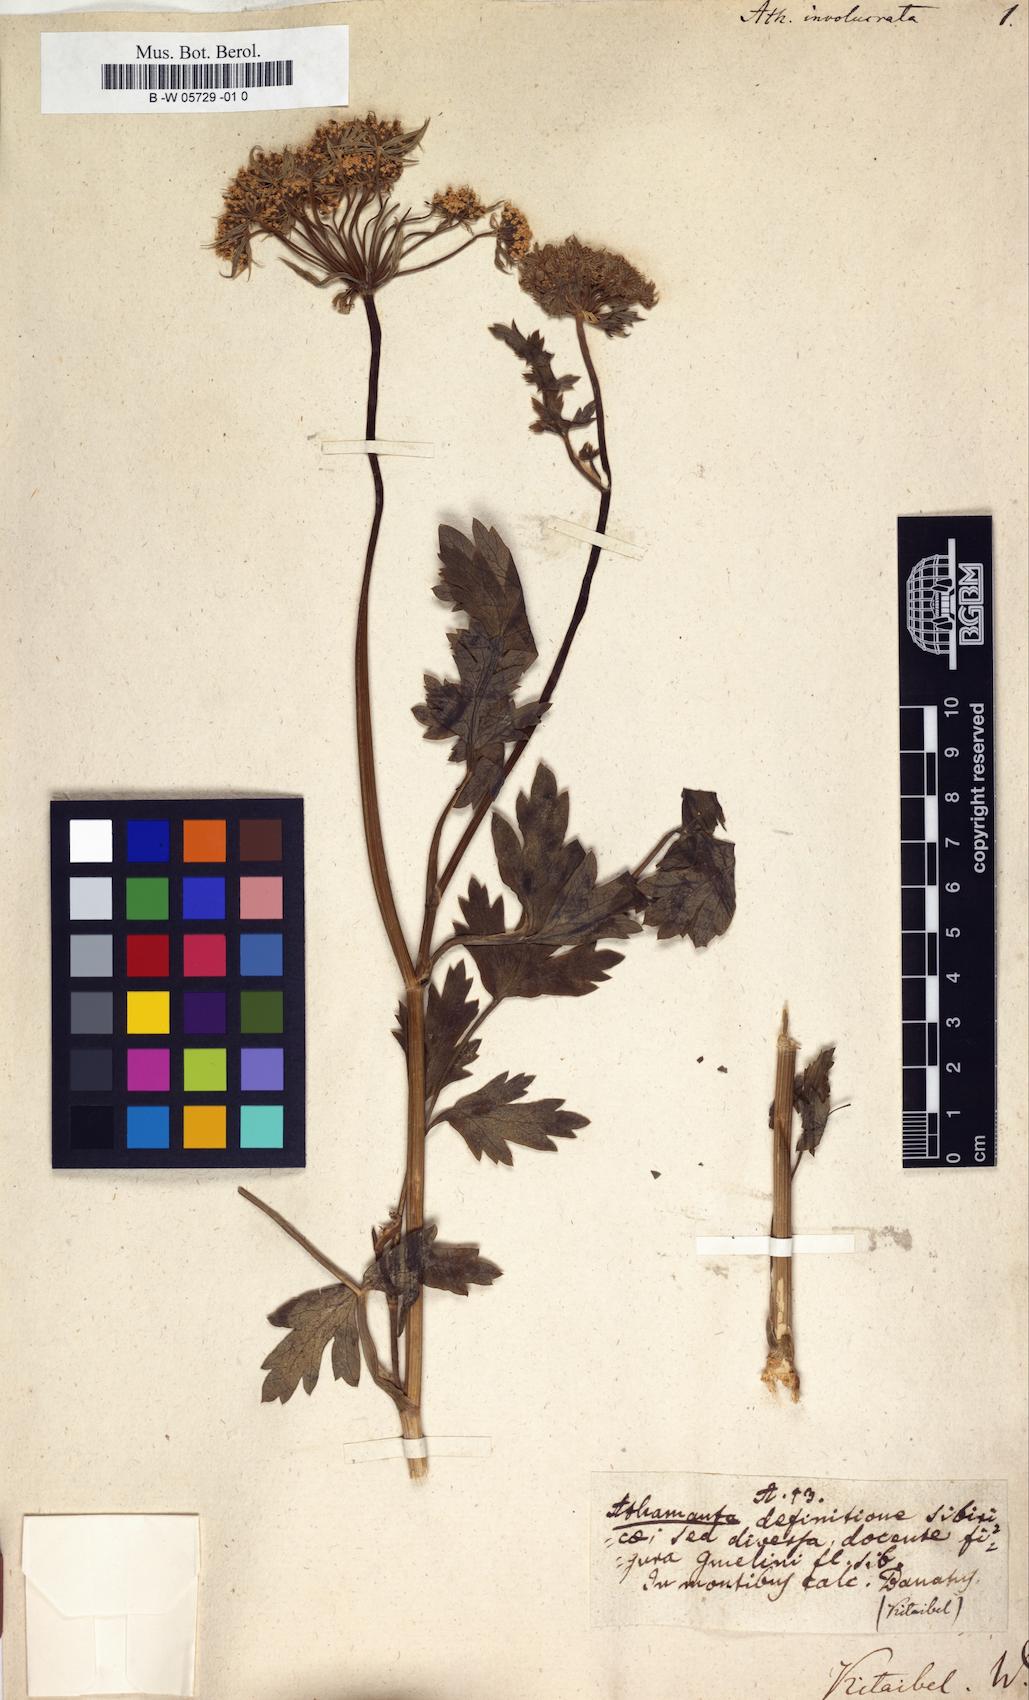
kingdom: Plantae
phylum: Tracheophyta
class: Magnoliopsida
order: Apiales
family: Apiaceae
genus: Athamanta
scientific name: Athamanta
